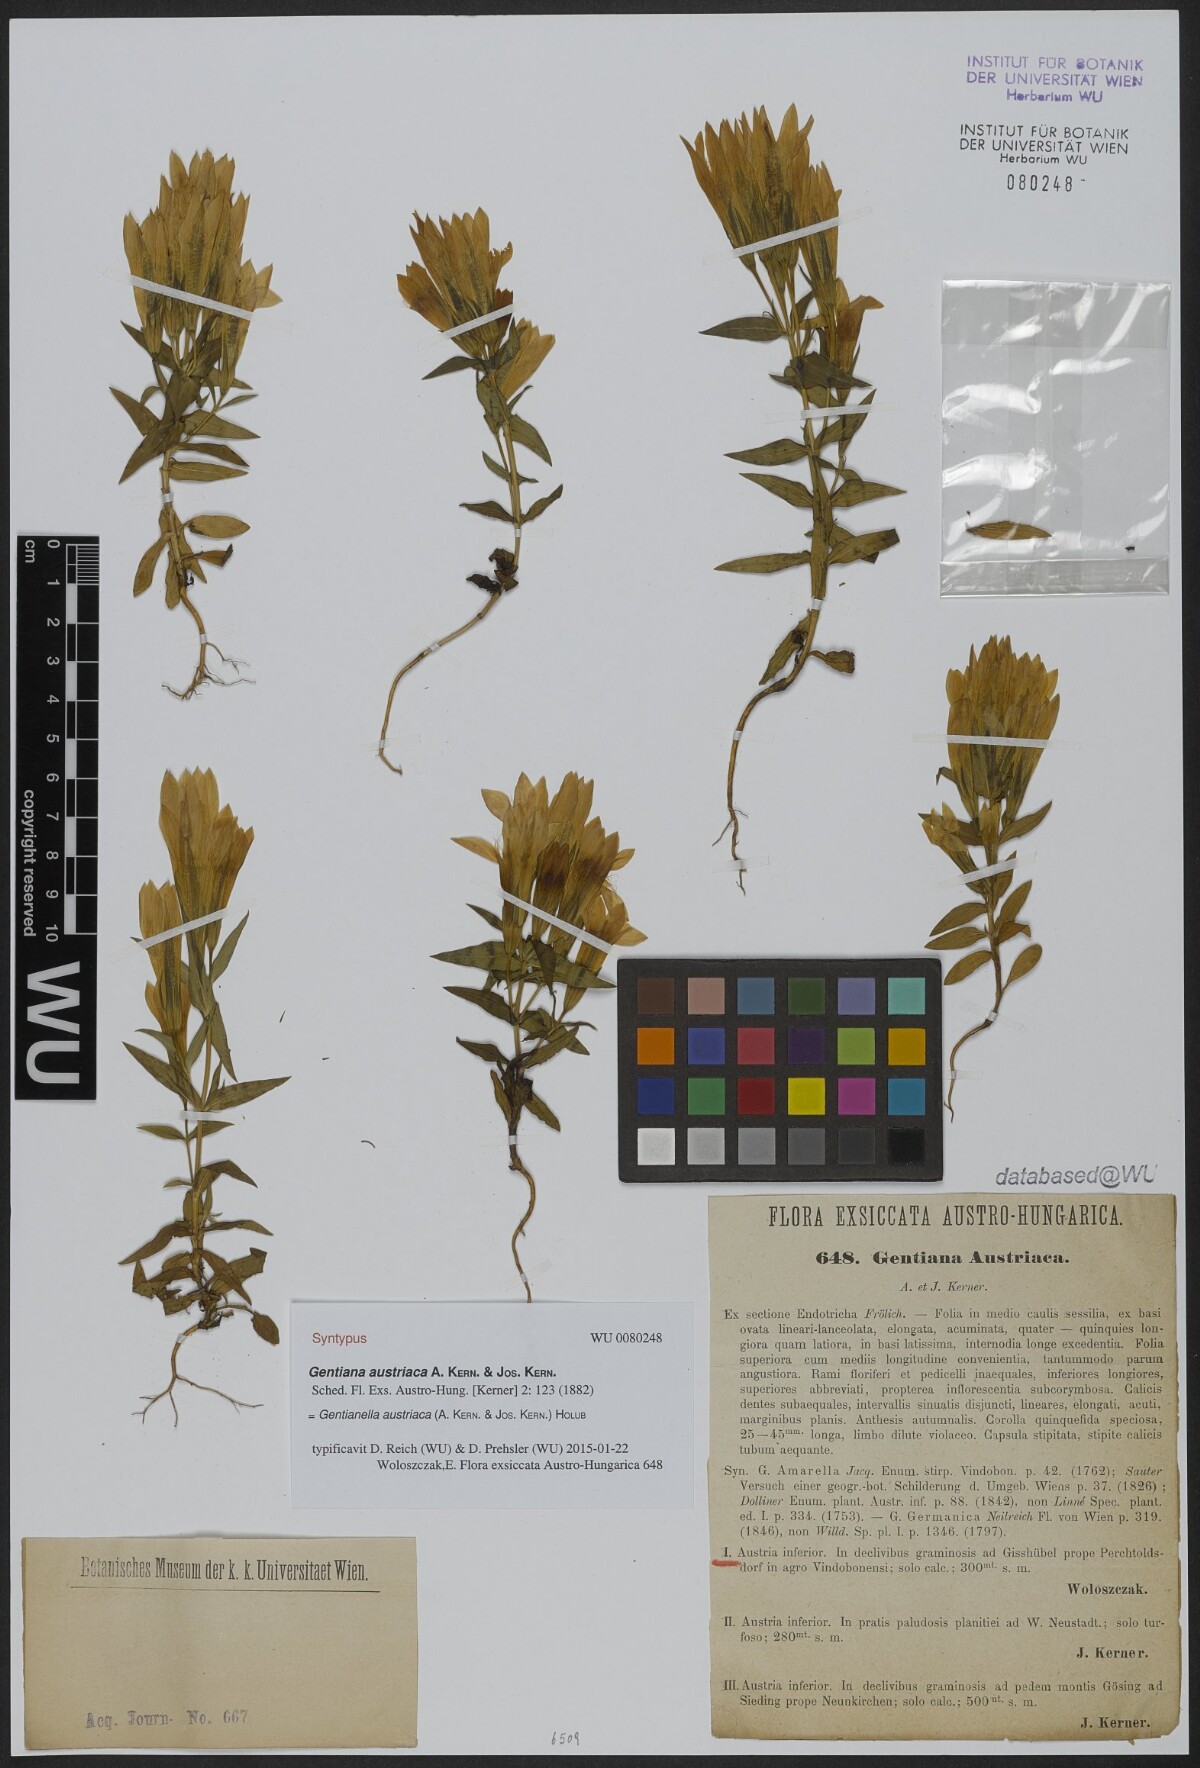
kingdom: Plantae
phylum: Tracheophyta
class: Magnoliopsida
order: Gentianales
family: Gentianaceae
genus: Gentianella
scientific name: Gentianella austriaca
